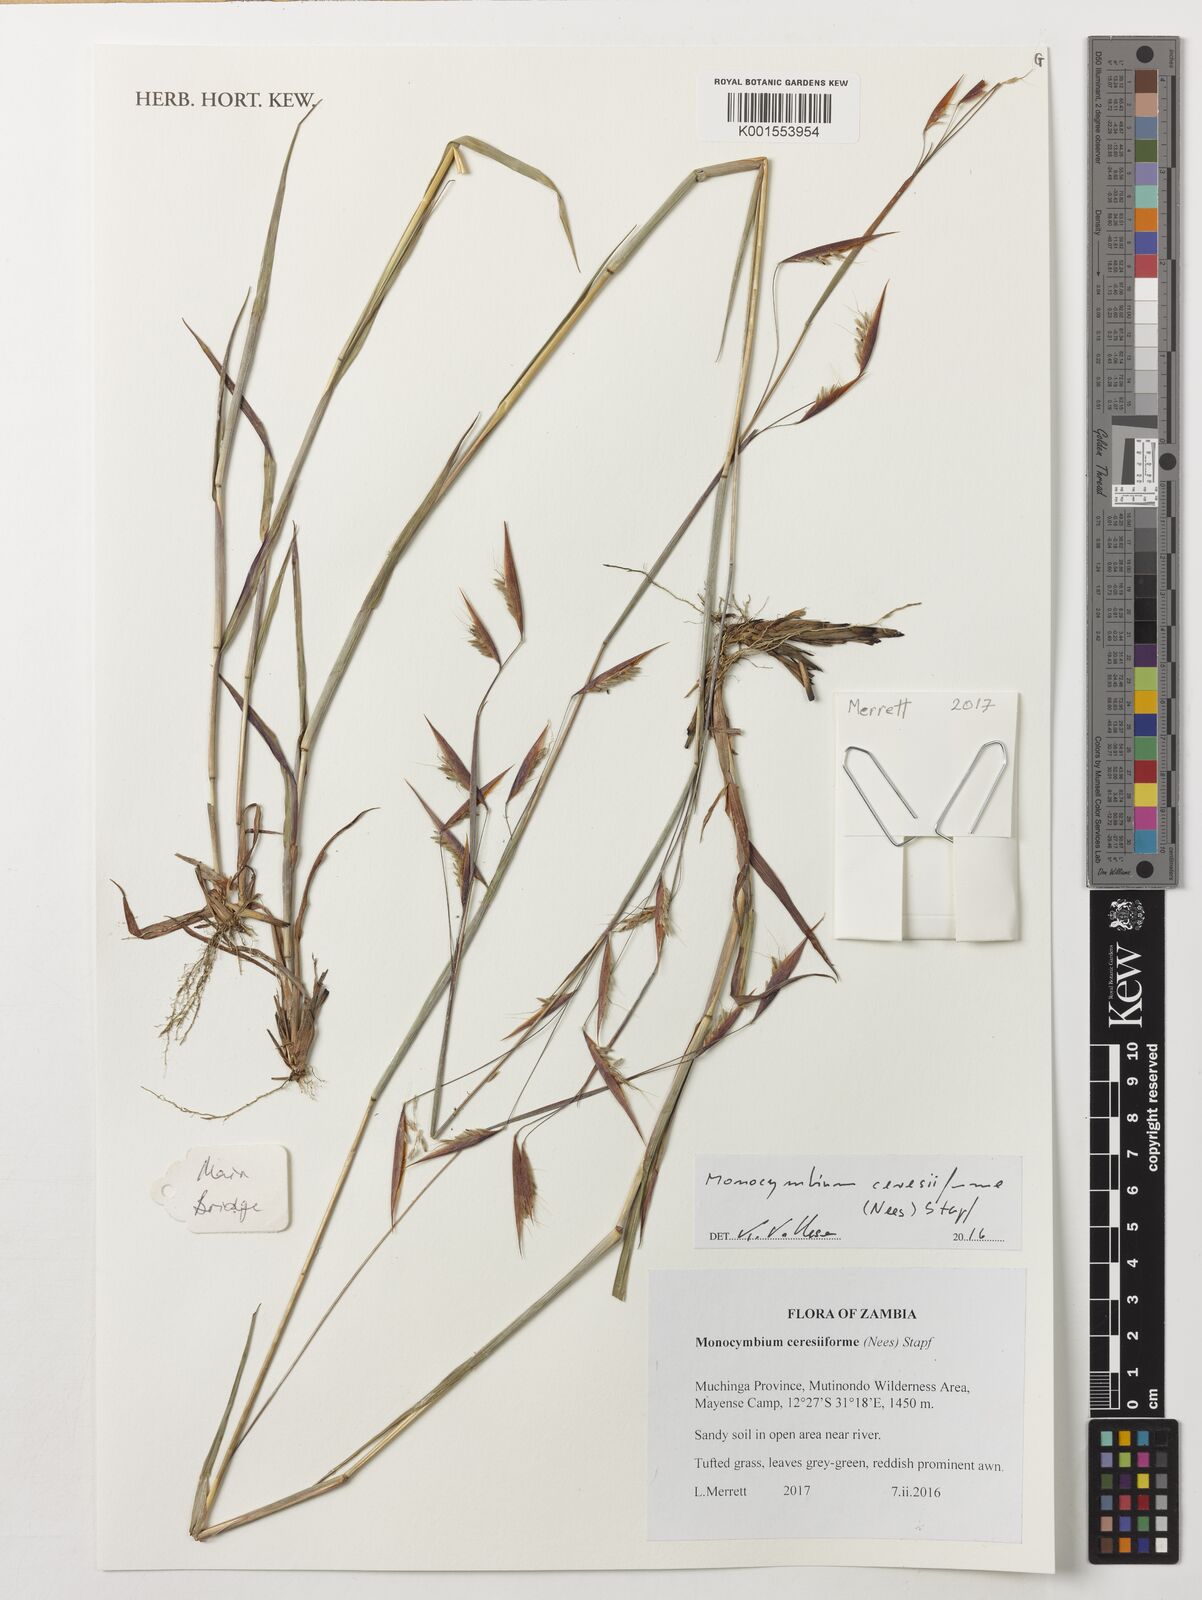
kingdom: Plantae
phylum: Tracheophyta
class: Liliopsida
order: Poales
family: Poaceae
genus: Monocymbium
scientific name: Monocymbium ceresiiforme
